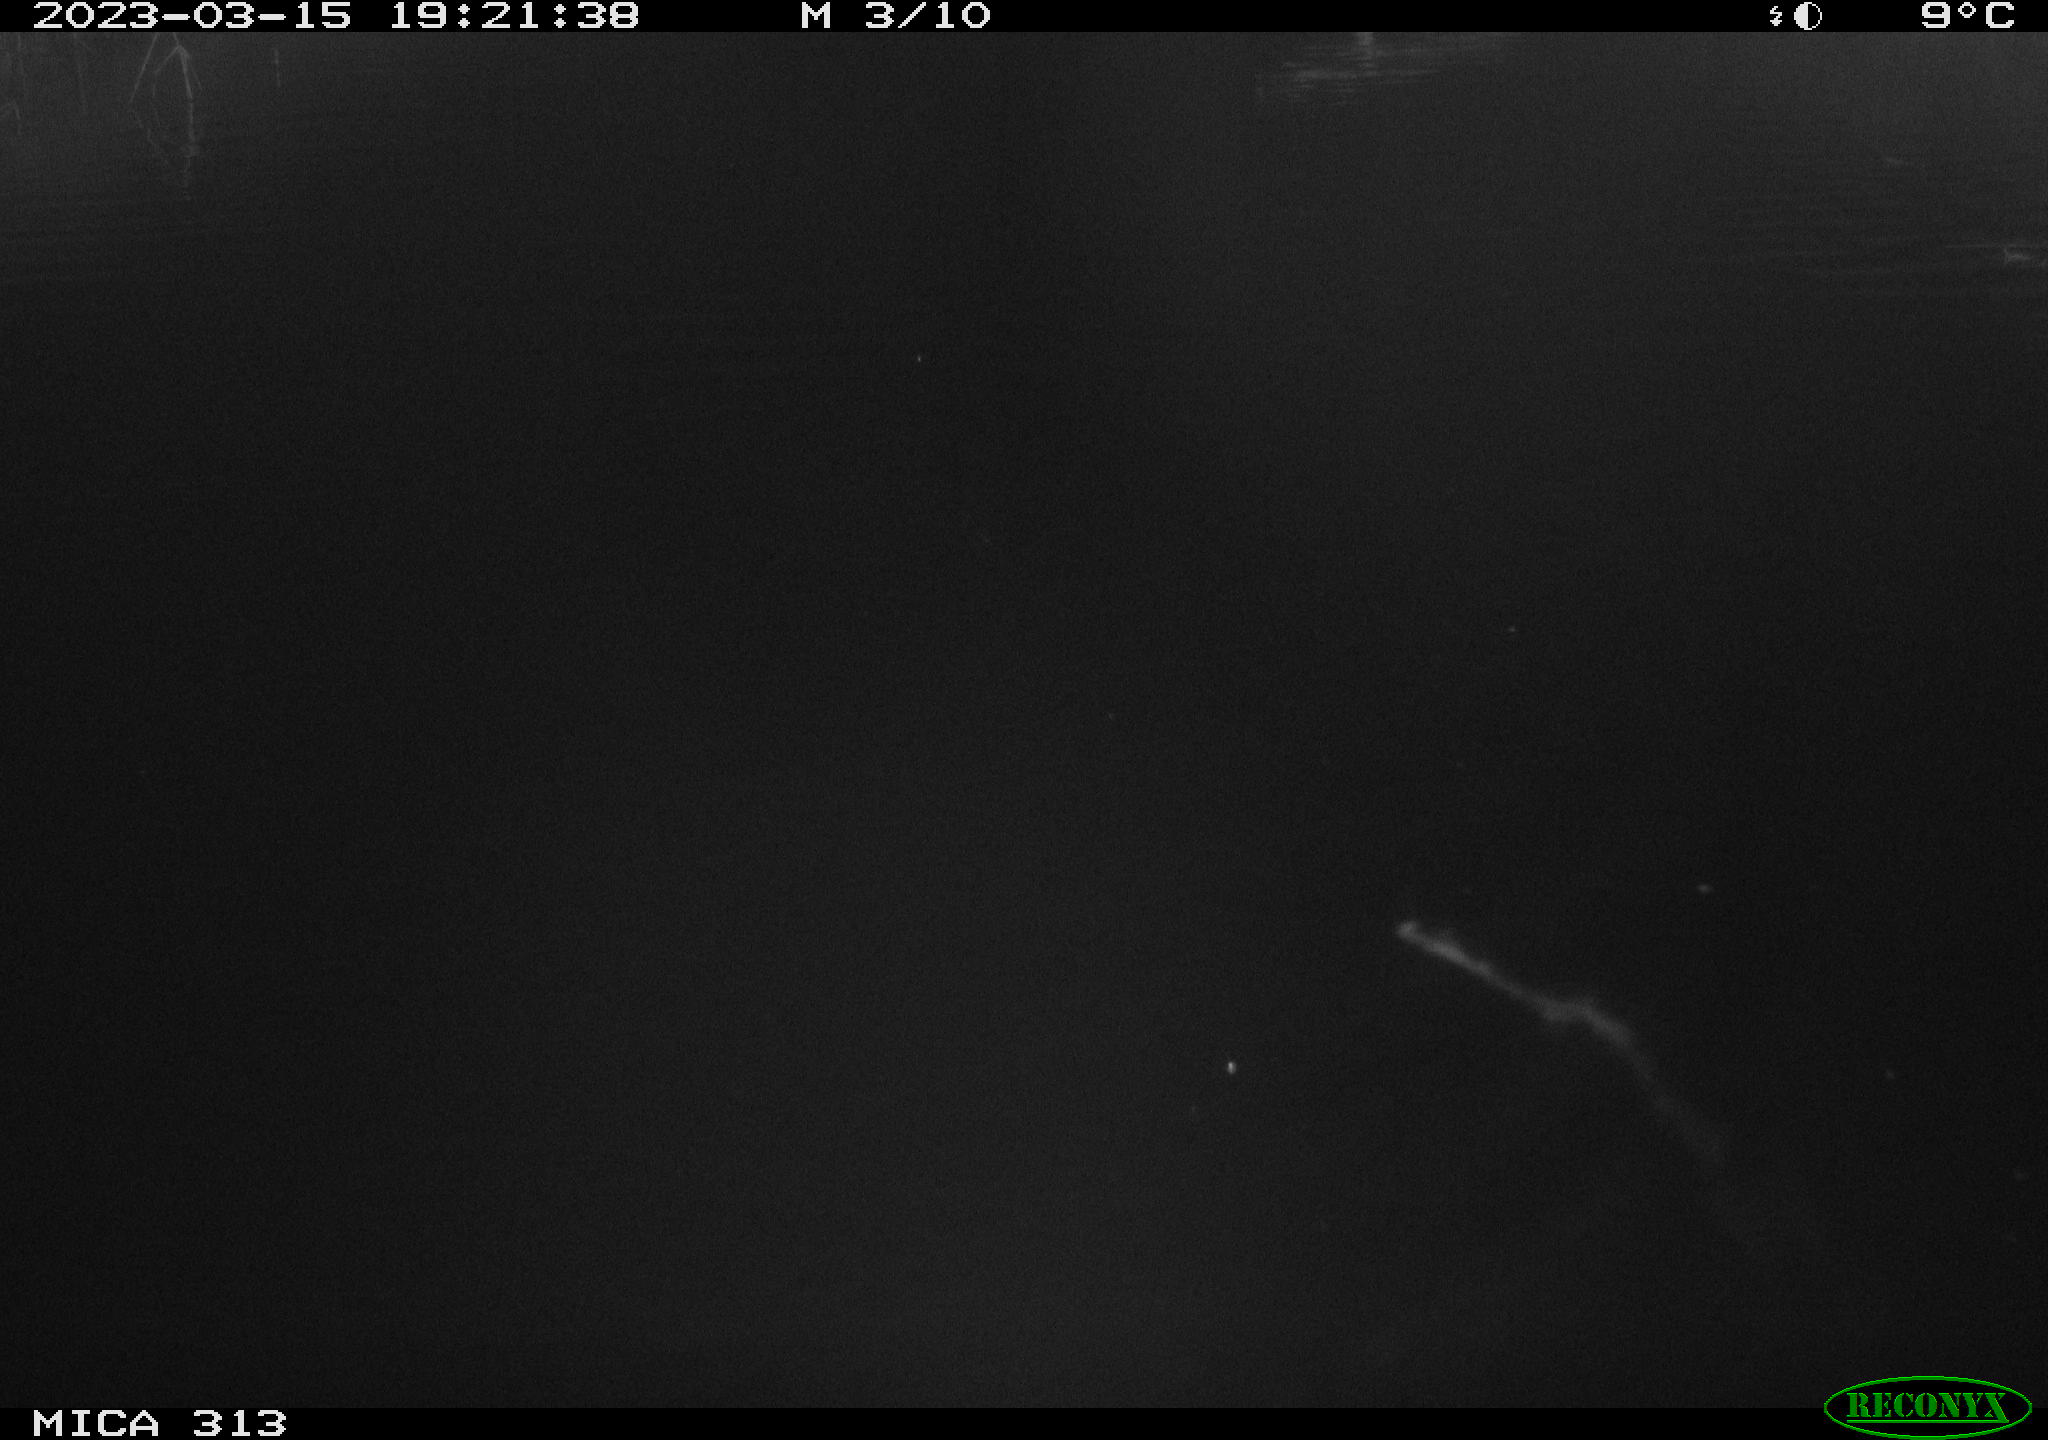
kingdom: Animalia
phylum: Chordata
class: Aves
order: Anseriformes
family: Anatidae
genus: Anas
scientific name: Anas
